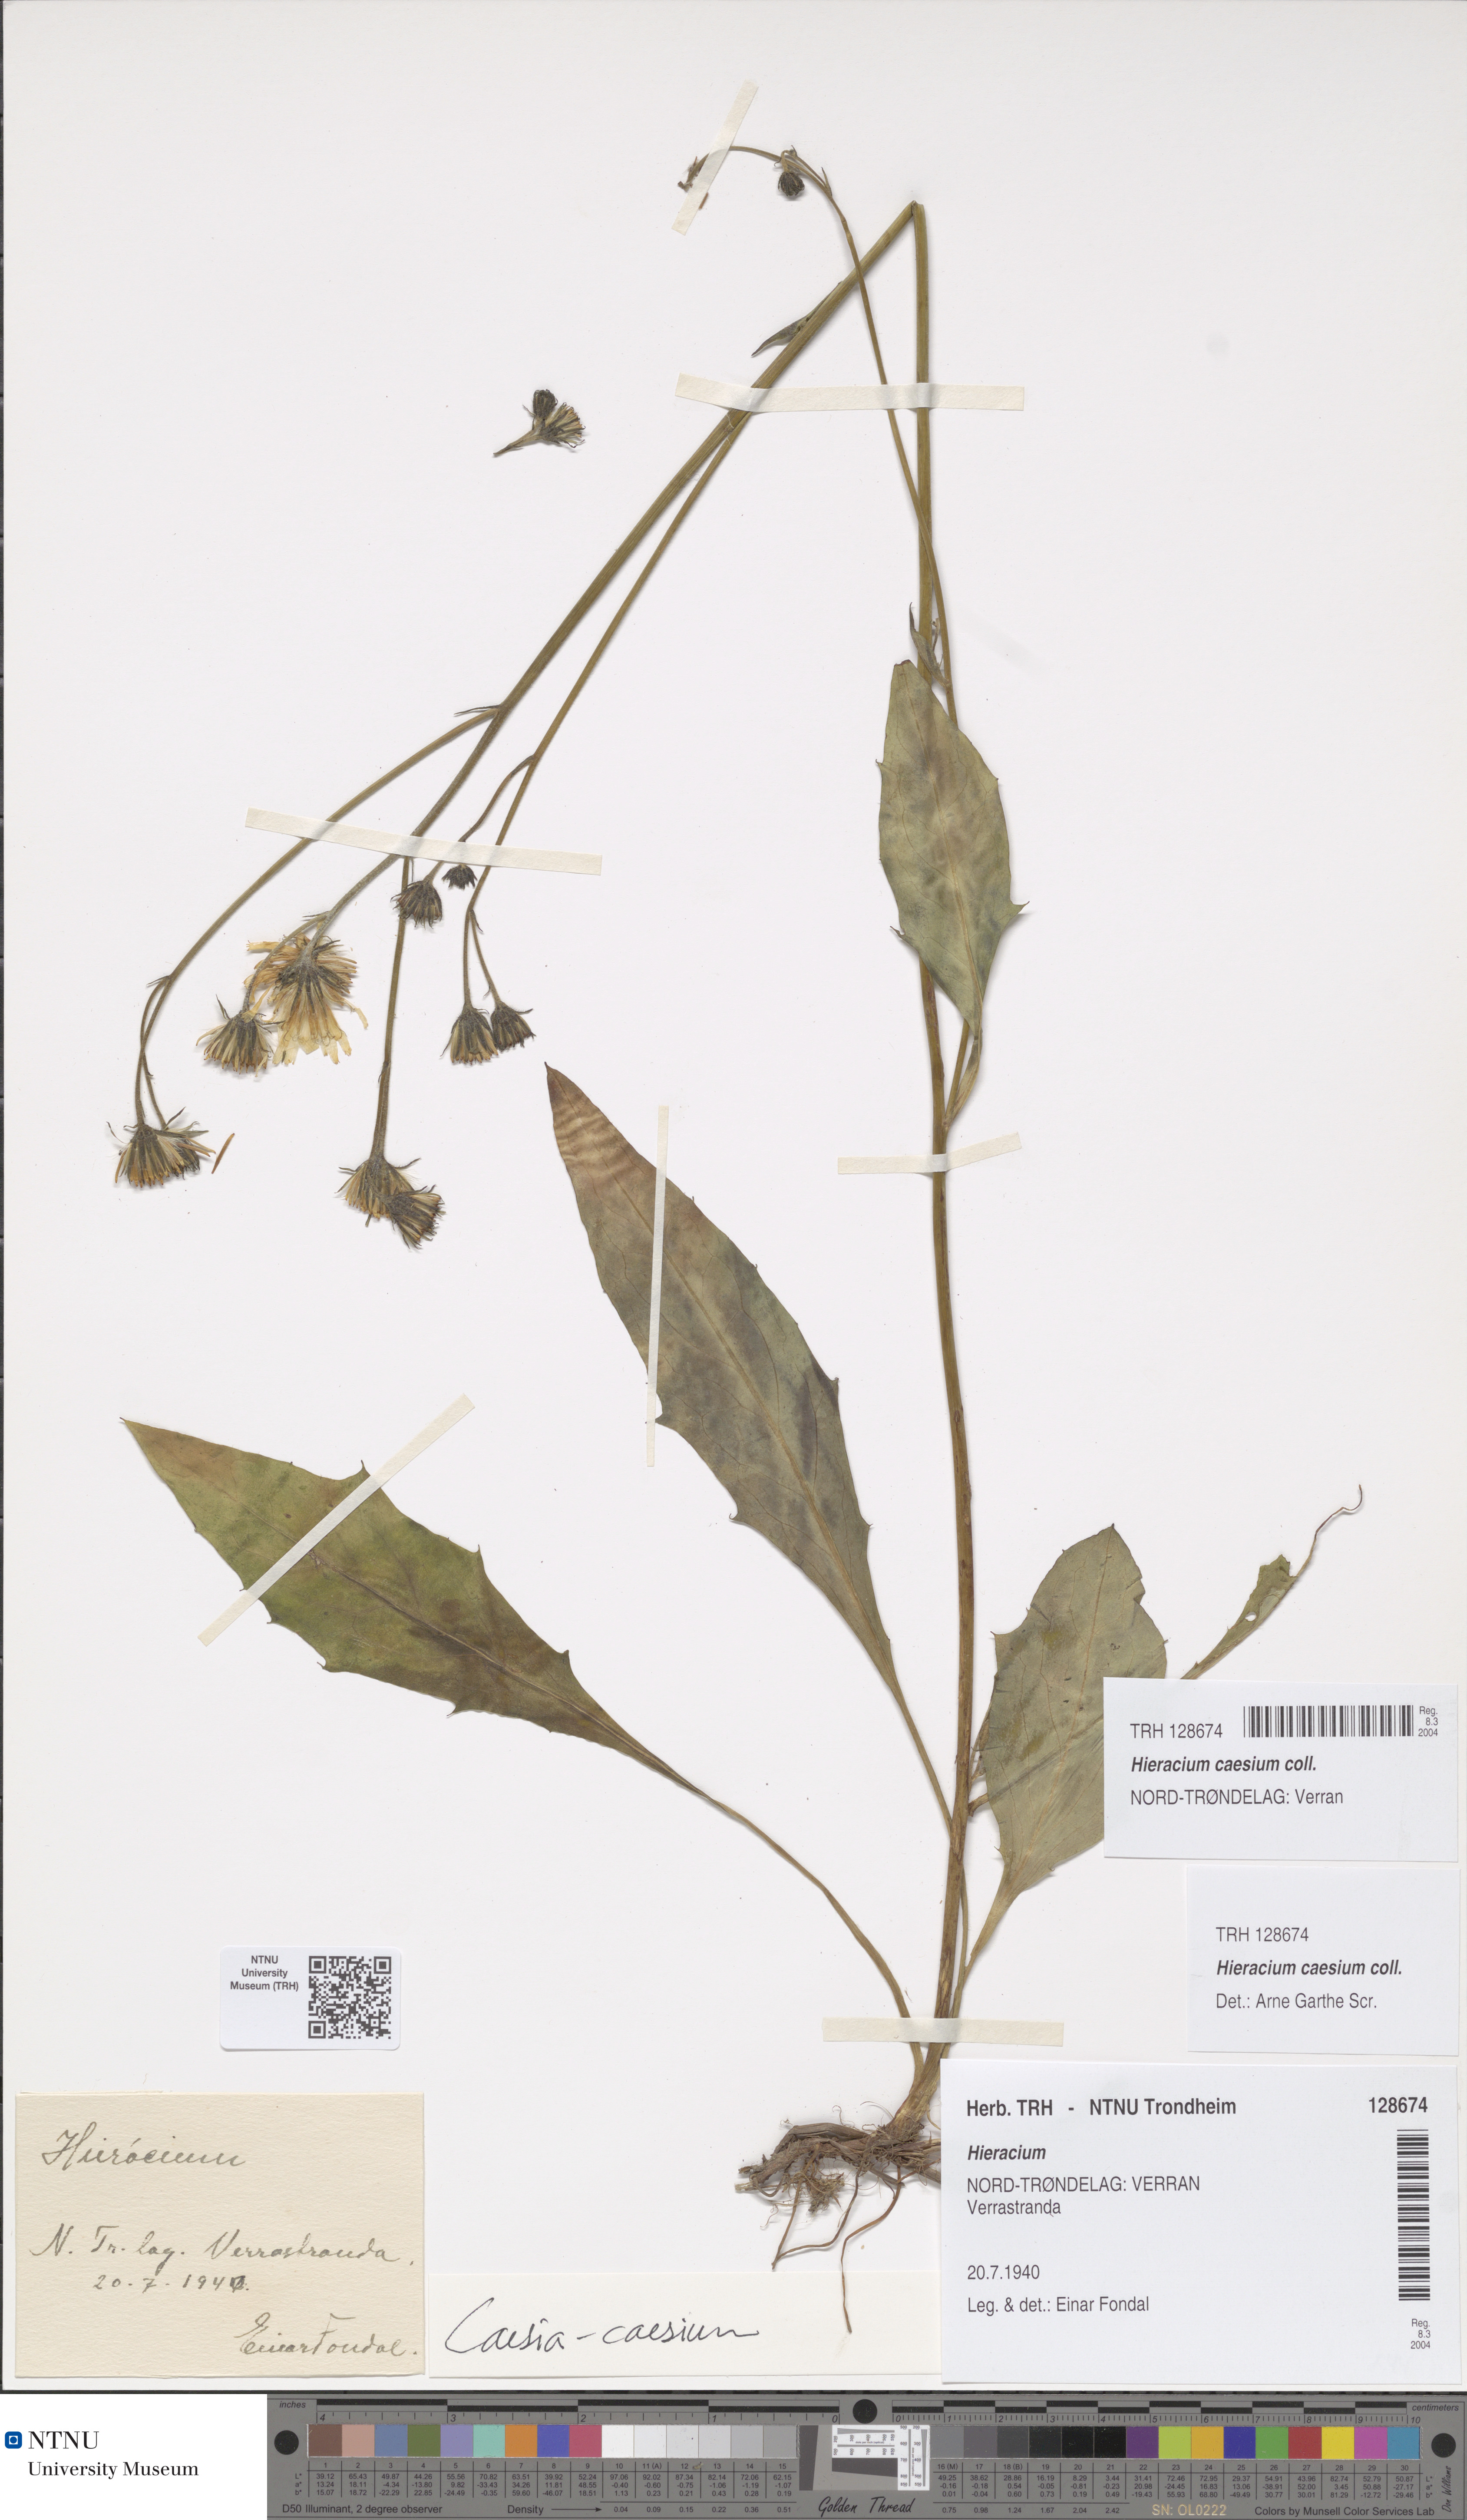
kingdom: Plantae
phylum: Tracheophyta
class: Magnoliopsida
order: Asterales
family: Asteraceae
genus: Hieracium
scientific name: Hieracium caesium
